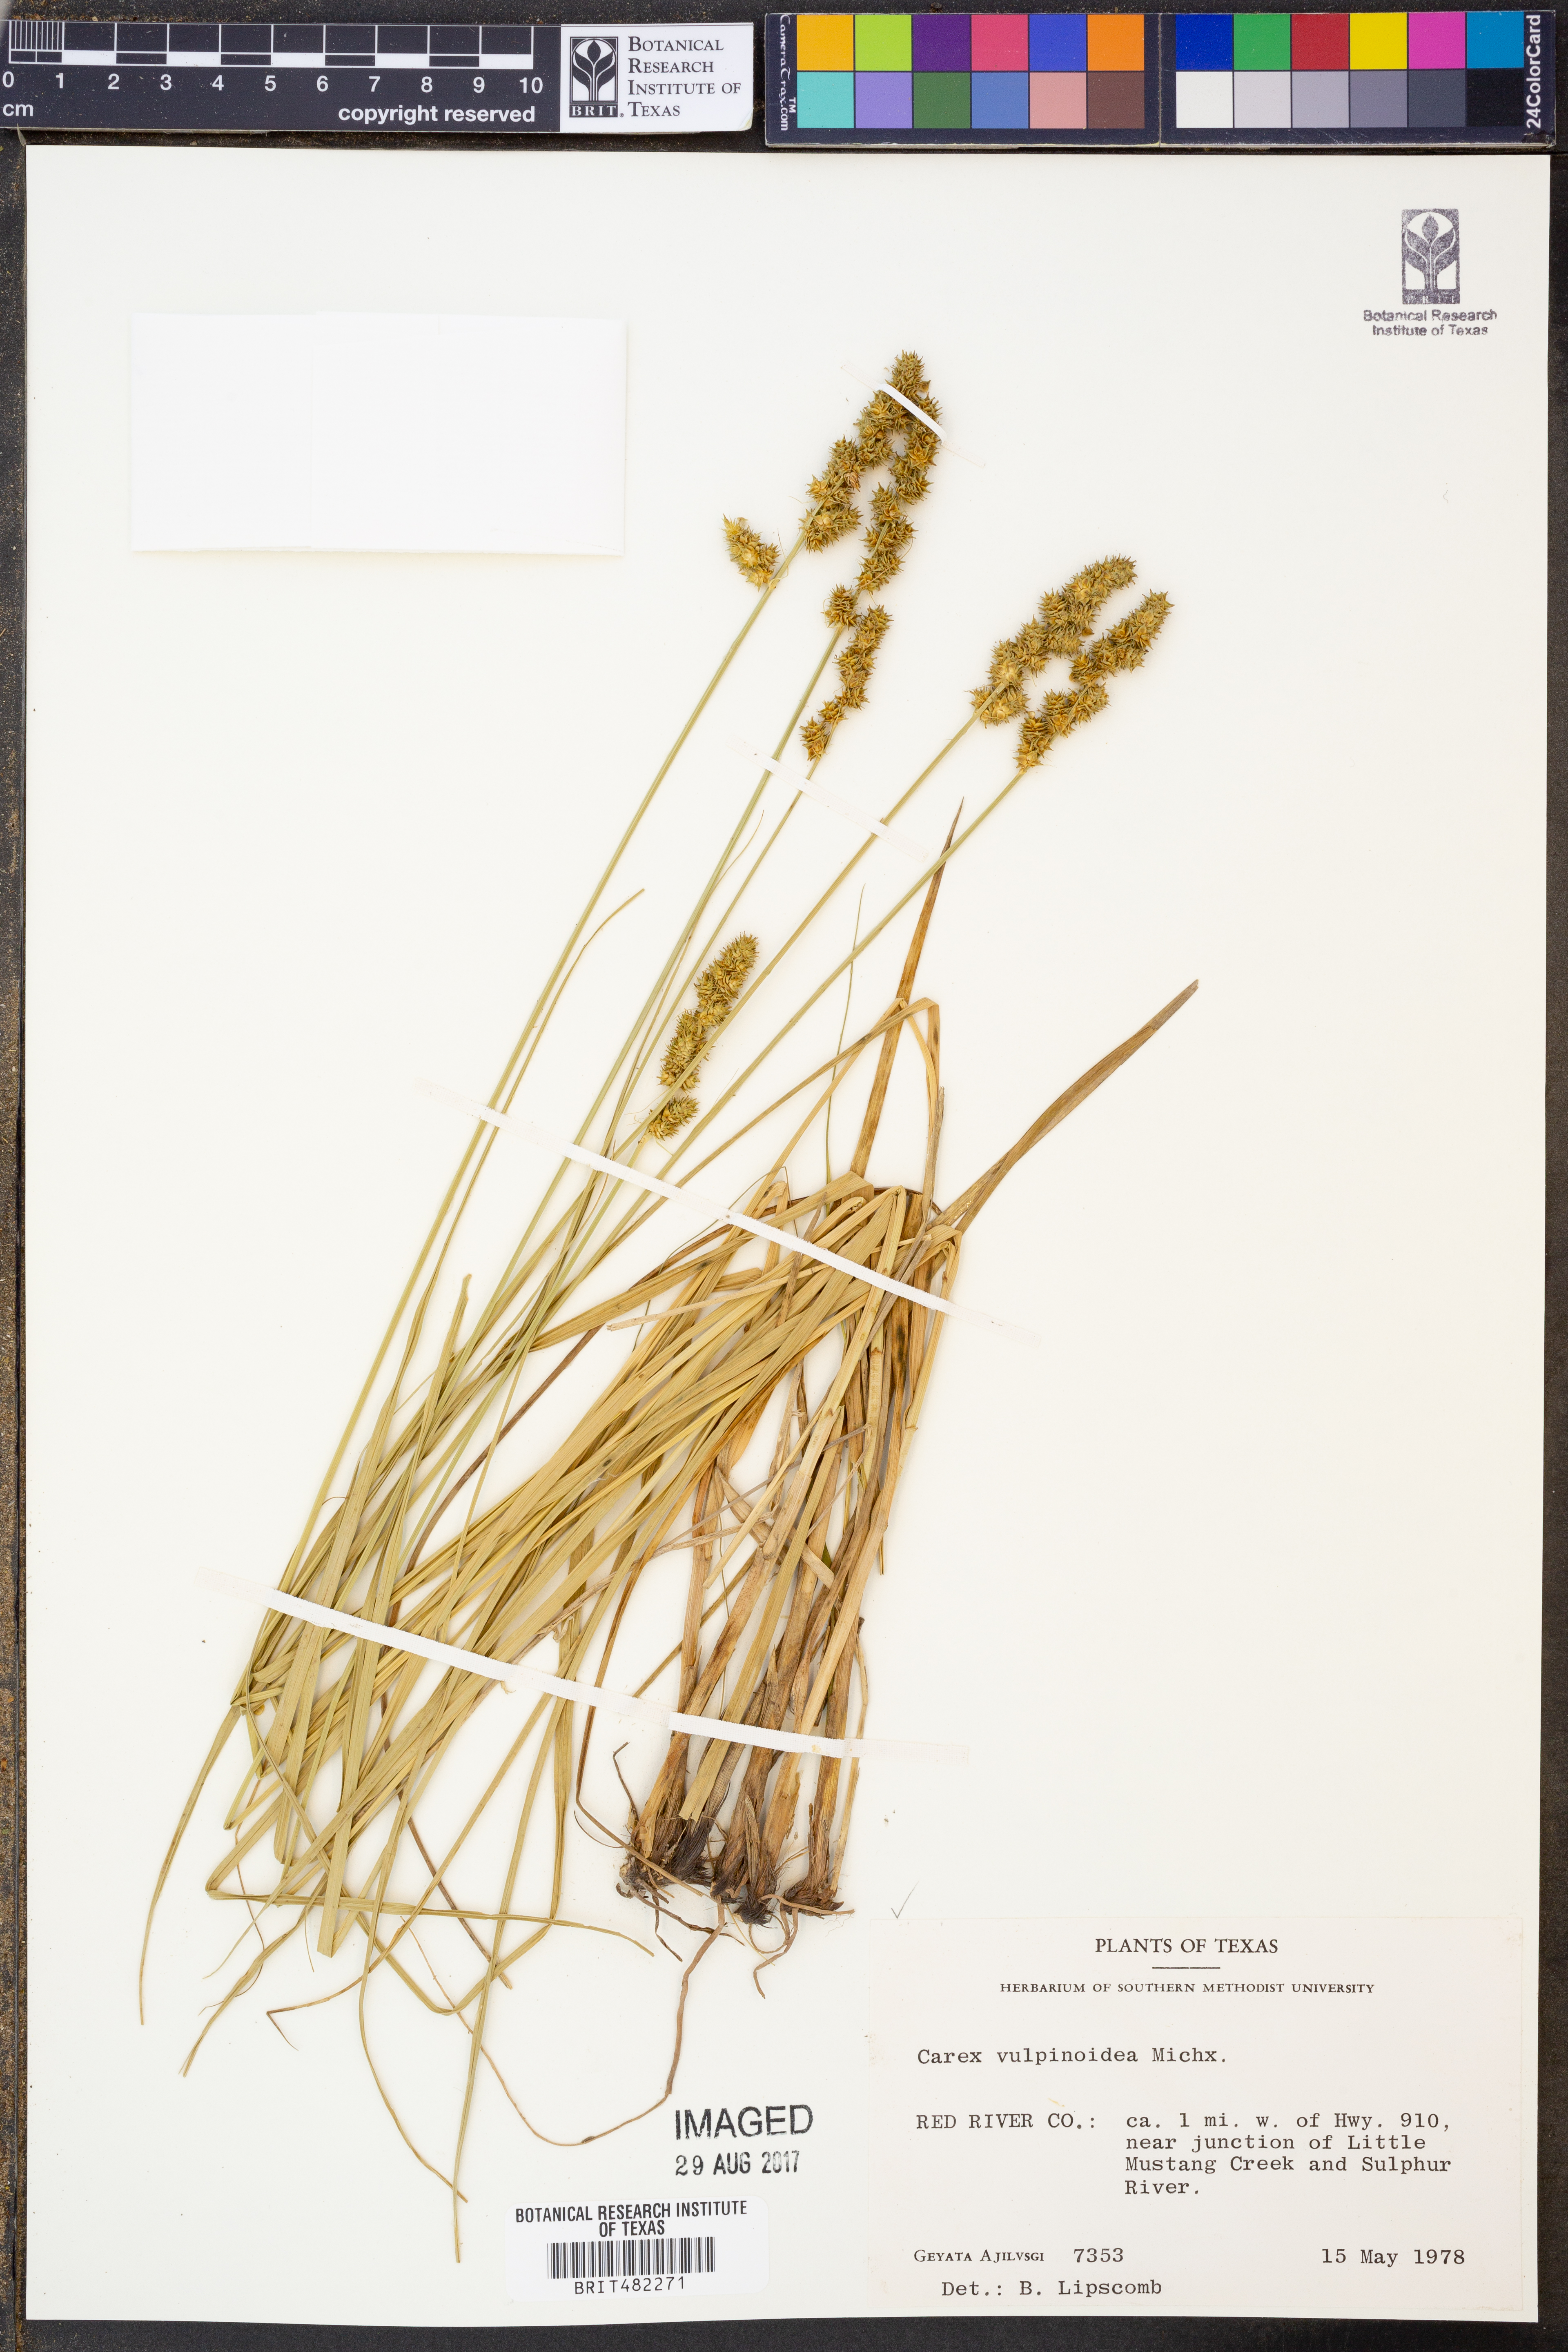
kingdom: Plantae
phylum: Tracheophyta
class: Liliopsida
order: Poales
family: Cyperaceae
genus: Carex
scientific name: Carex vulpinoidea
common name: American fox-sedge
